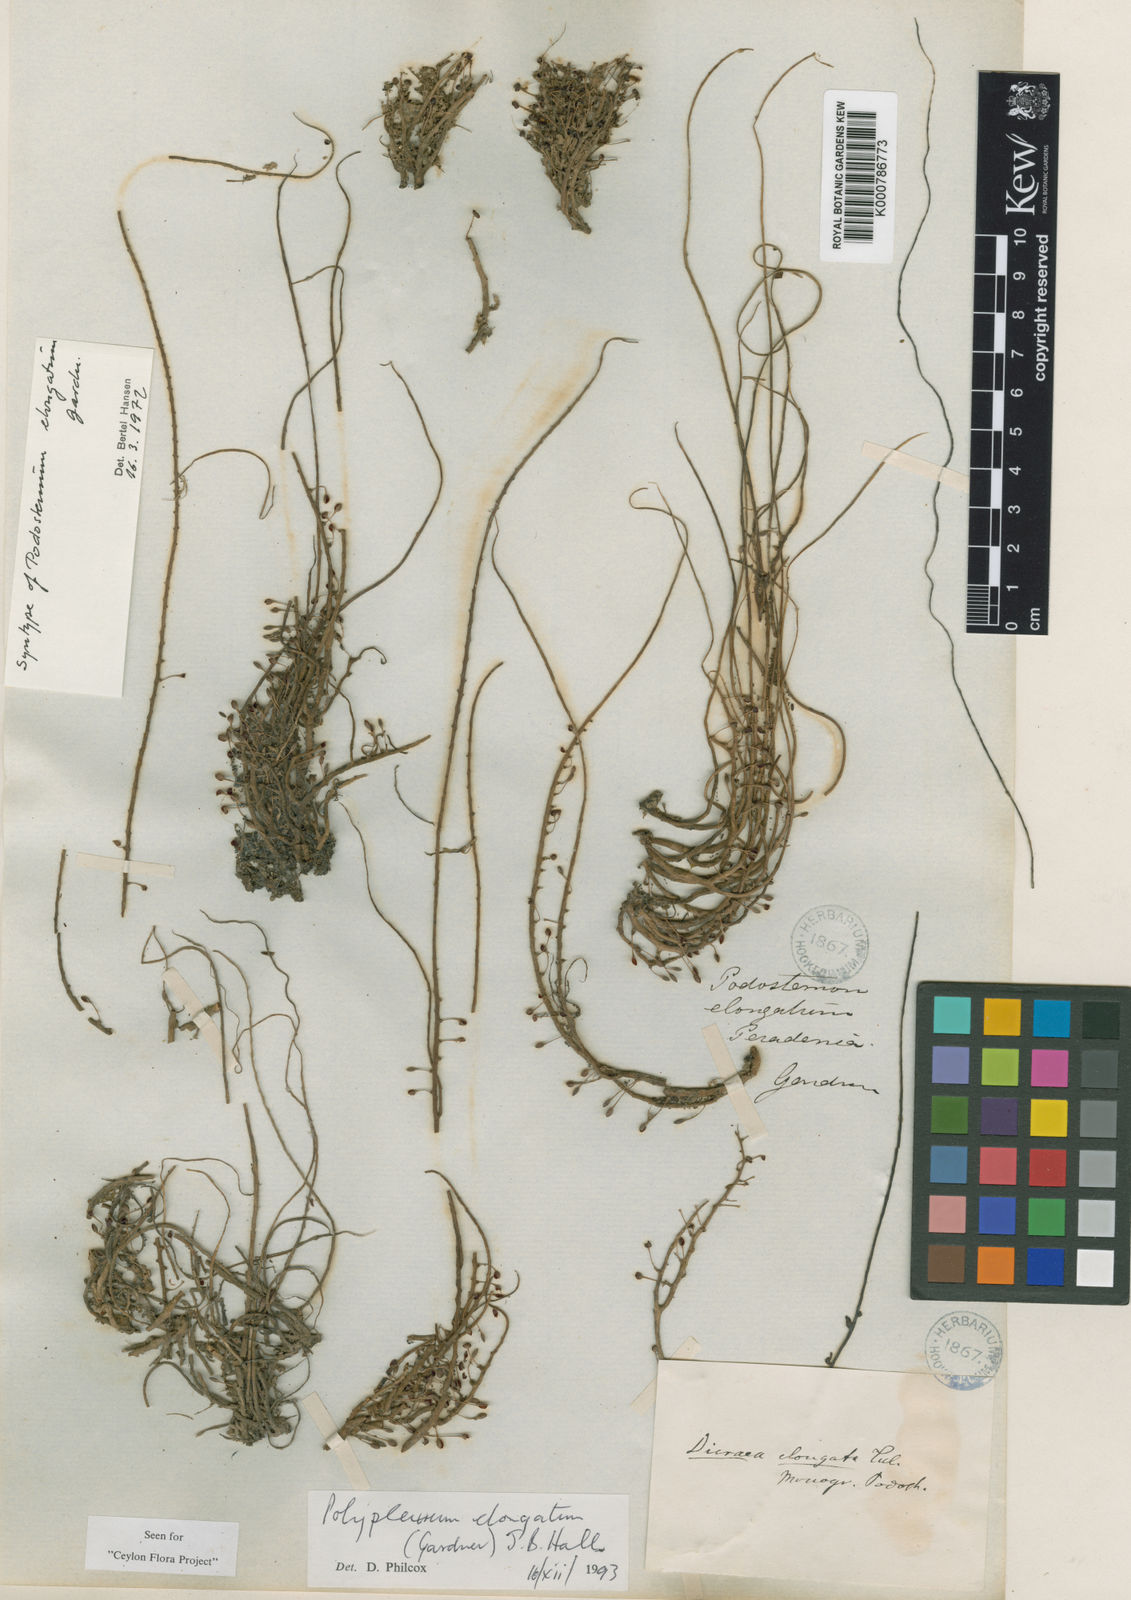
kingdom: Plantae
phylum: Tracheophyta
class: Magnoliopsida
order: Malpighiales
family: Podostemaceae
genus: Polypleurum
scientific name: Polypleurum elongatum
